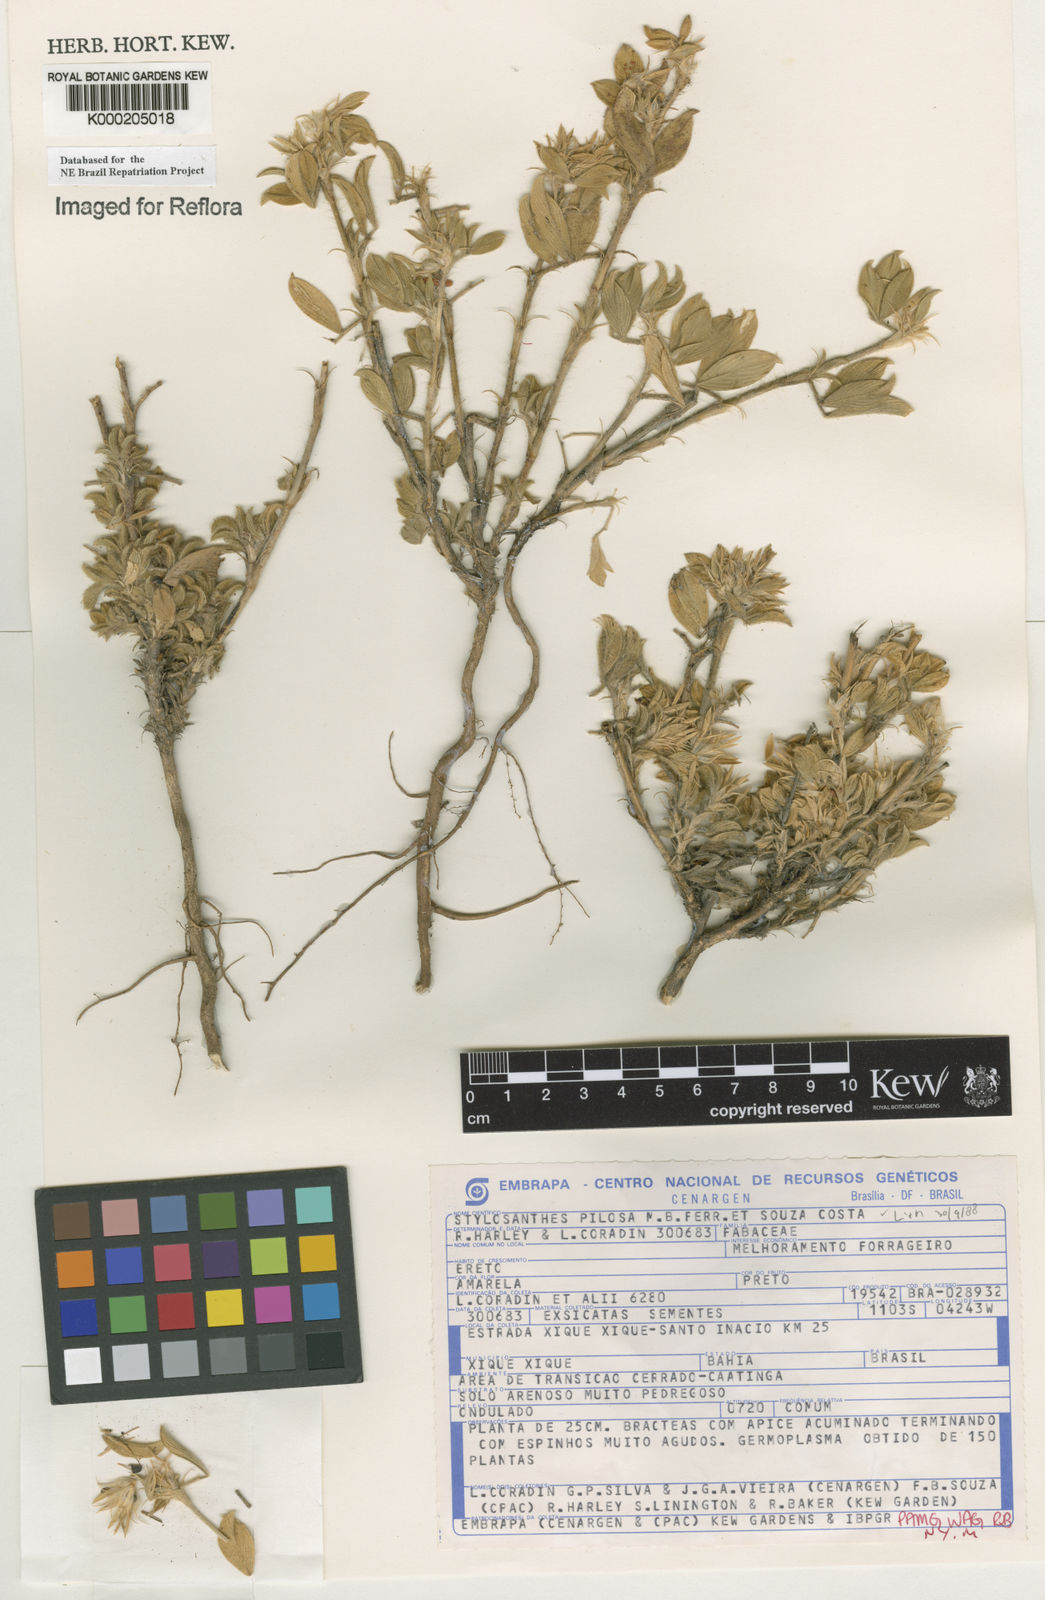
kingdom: Plantae
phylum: Tracheophyta
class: Magnoliopsida
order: Fabales
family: Fabaceae
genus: Stylosanthes
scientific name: Stylosanthes viscosa
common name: Viscid pencil-flower
